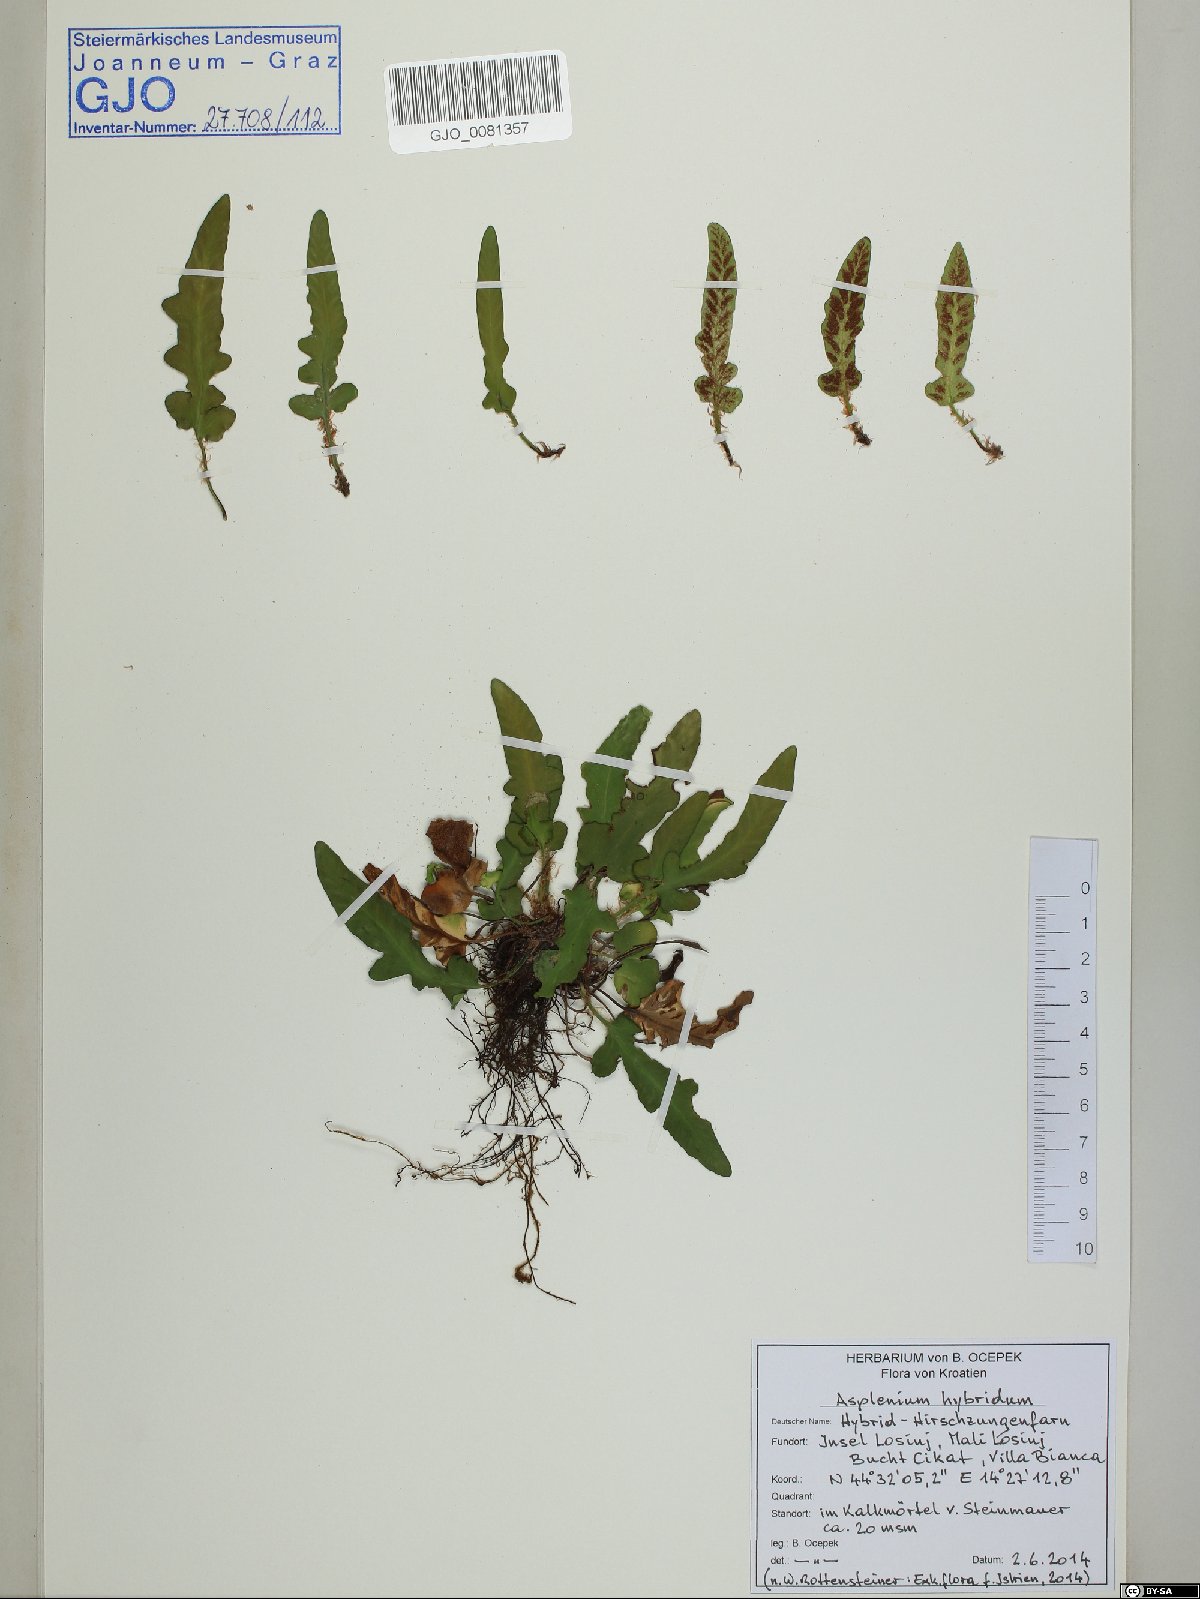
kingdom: Plantae
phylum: Tracheophyta
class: Polypodiopsida
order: Polypodiales
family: Aspleniaceae
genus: Asplenium
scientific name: Asplenium hybridum
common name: Dalmatian spleenwort
